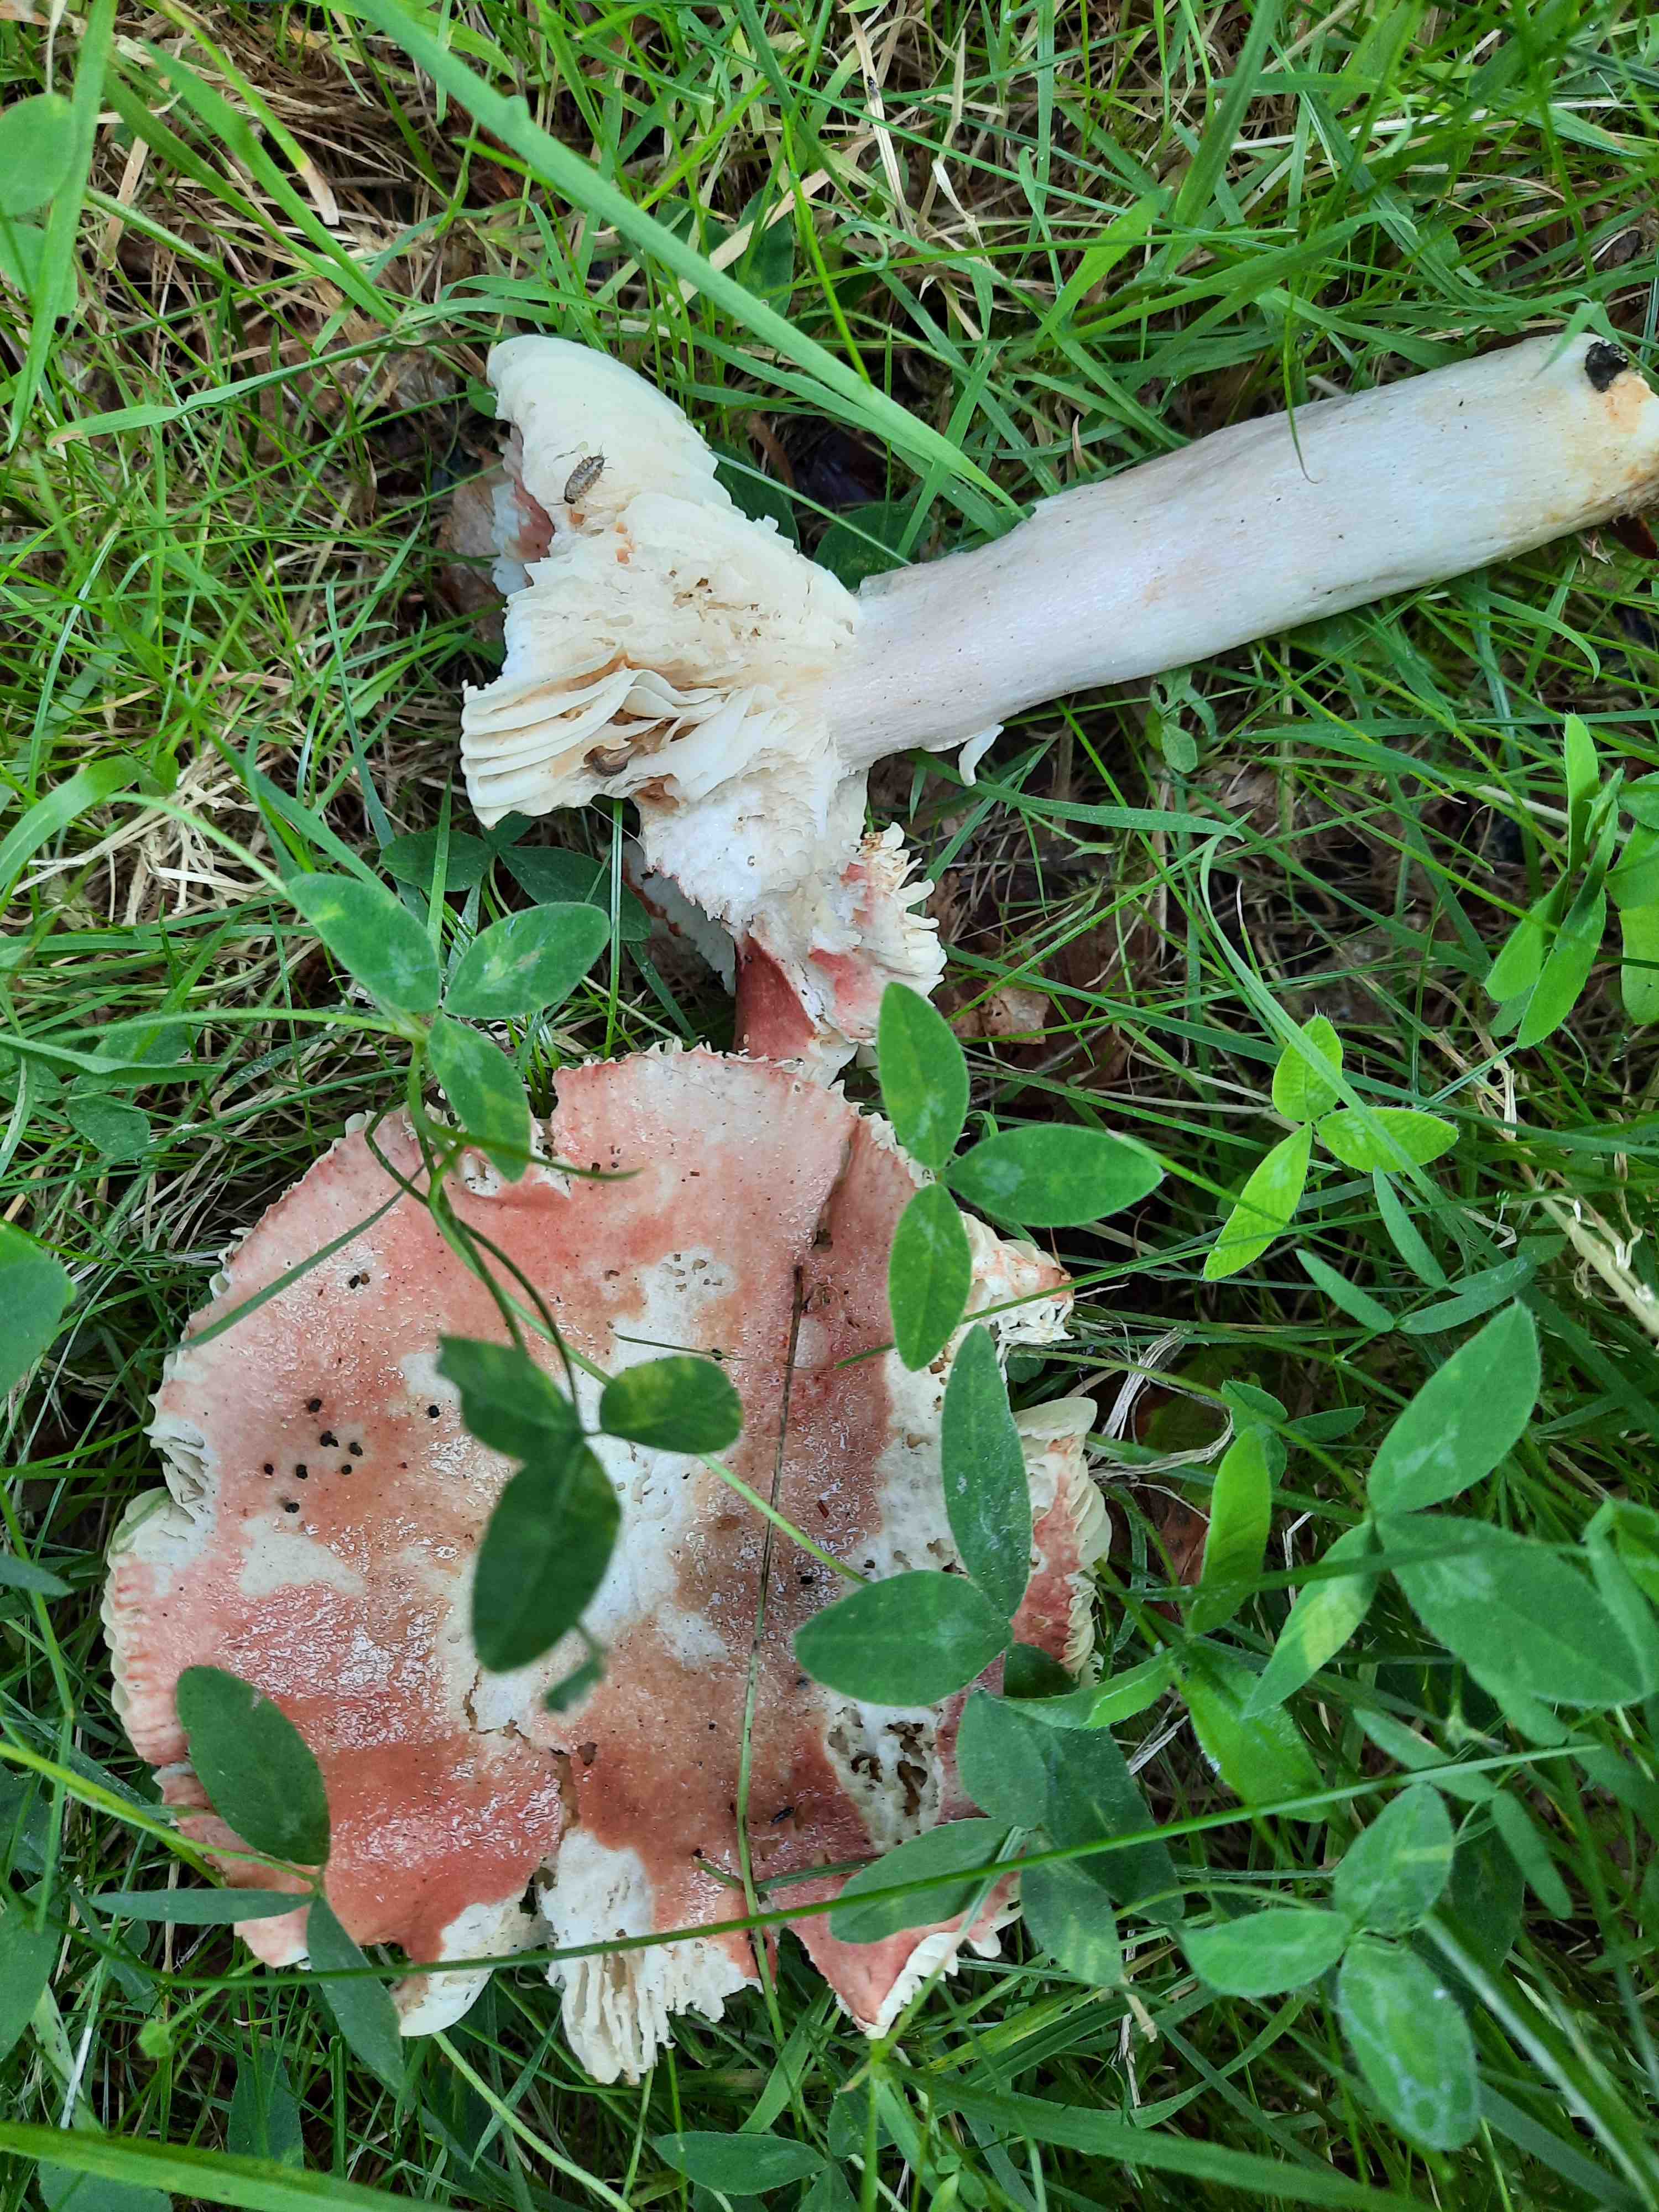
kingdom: Fungi
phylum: Basidiomycota
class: Agaricomycetes
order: Russulales
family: Russulaceae
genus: Russula
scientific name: Russula depallens
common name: falmende skørhat
